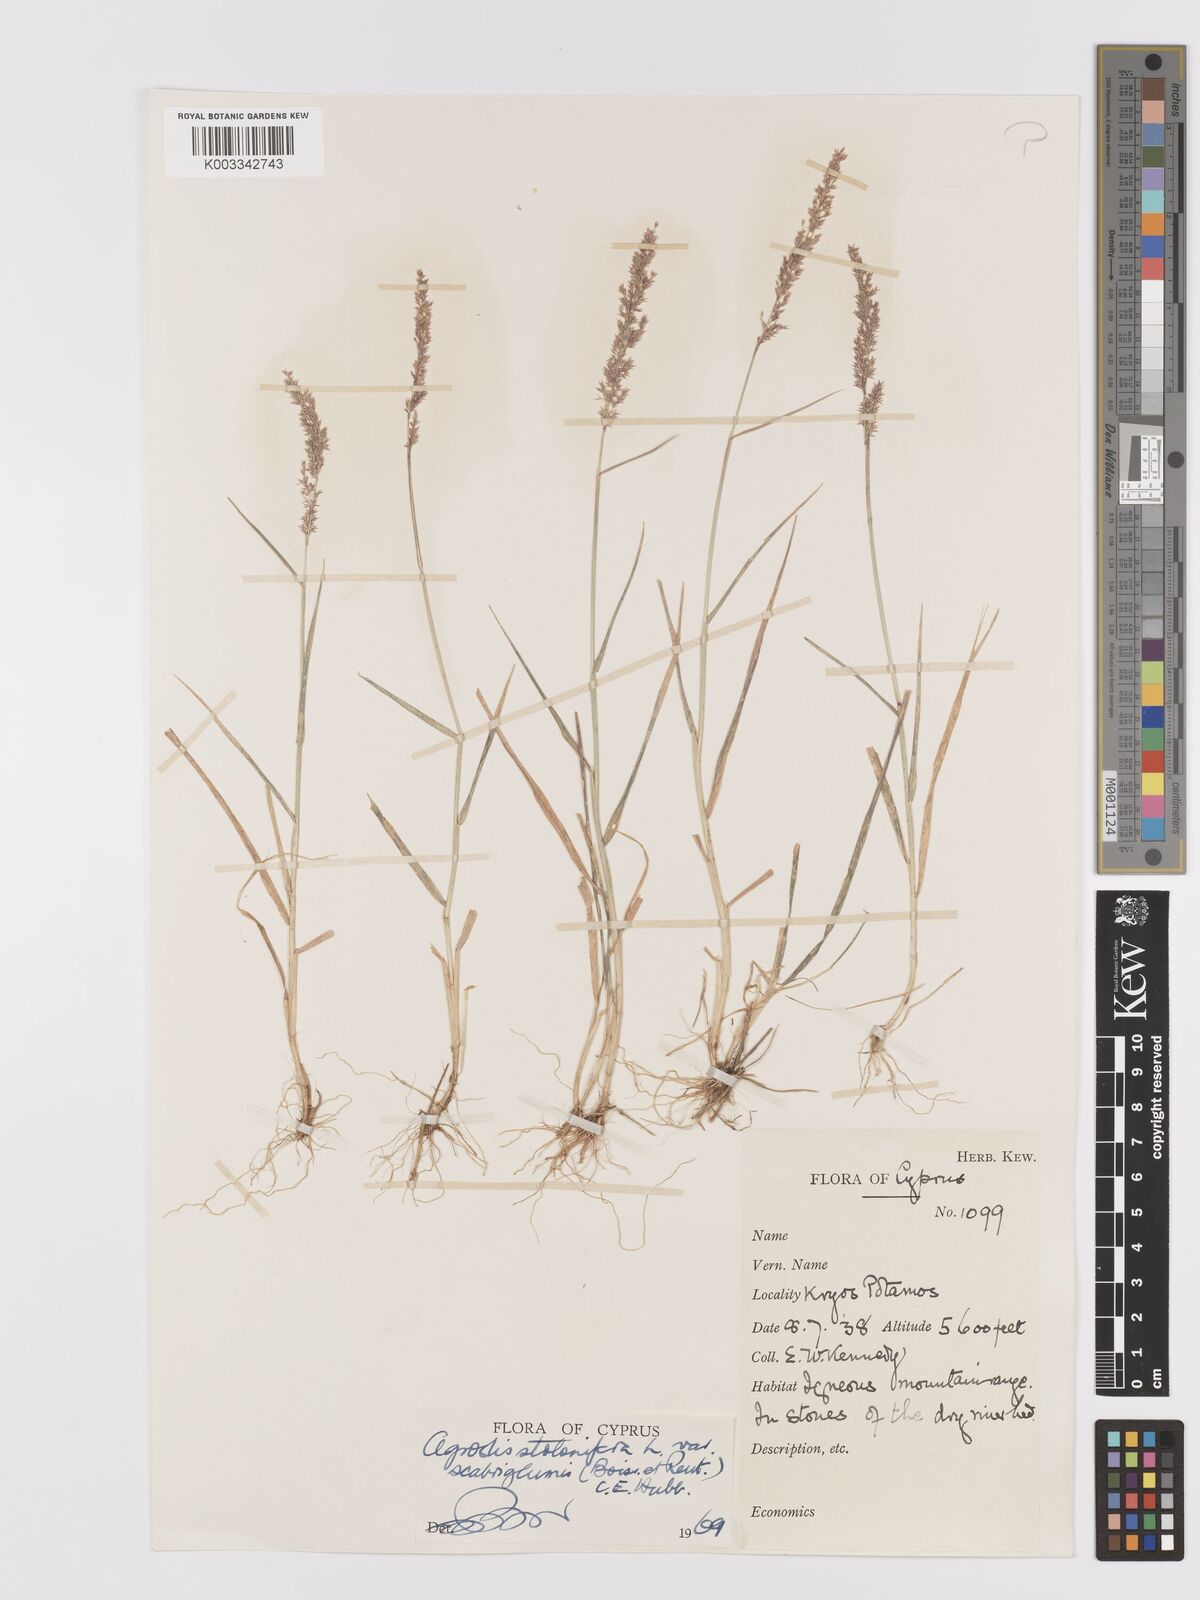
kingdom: Plantae
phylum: Tracheophyta
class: Liliopsida
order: Poales
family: Poaceae
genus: Agrostis
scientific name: Agrostis stolonifera
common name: Creeping bentgrass
